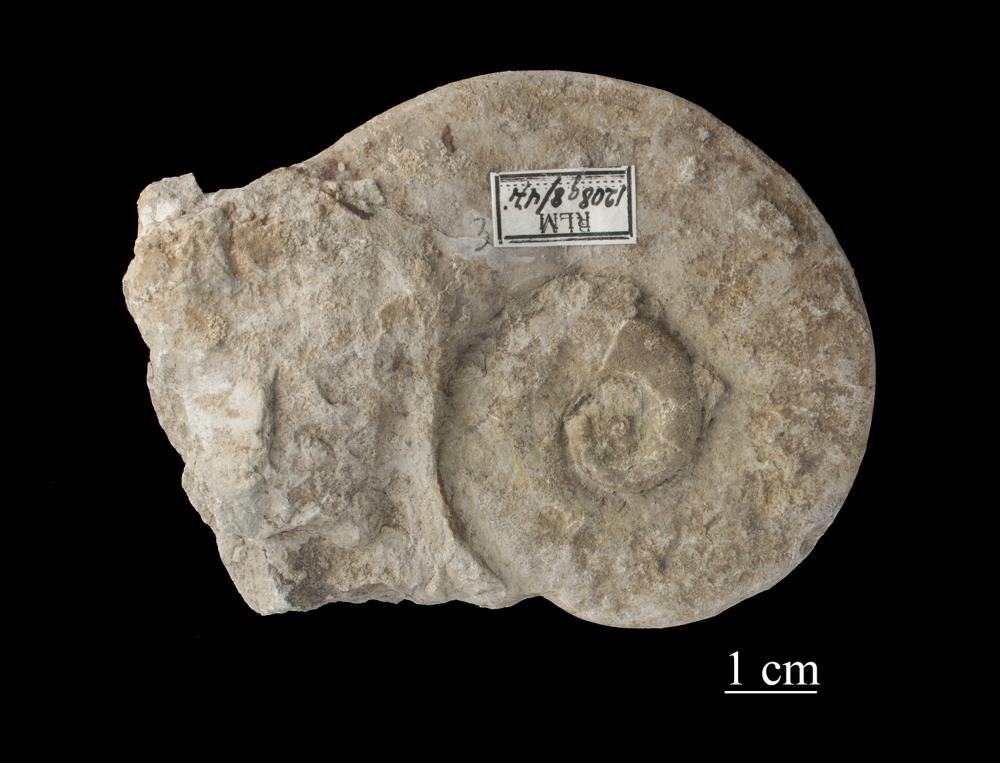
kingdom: Animalia
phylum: Mollusca
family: Macluritidae
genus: Maclurites
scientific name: Maclurites Maclurea neritoides
